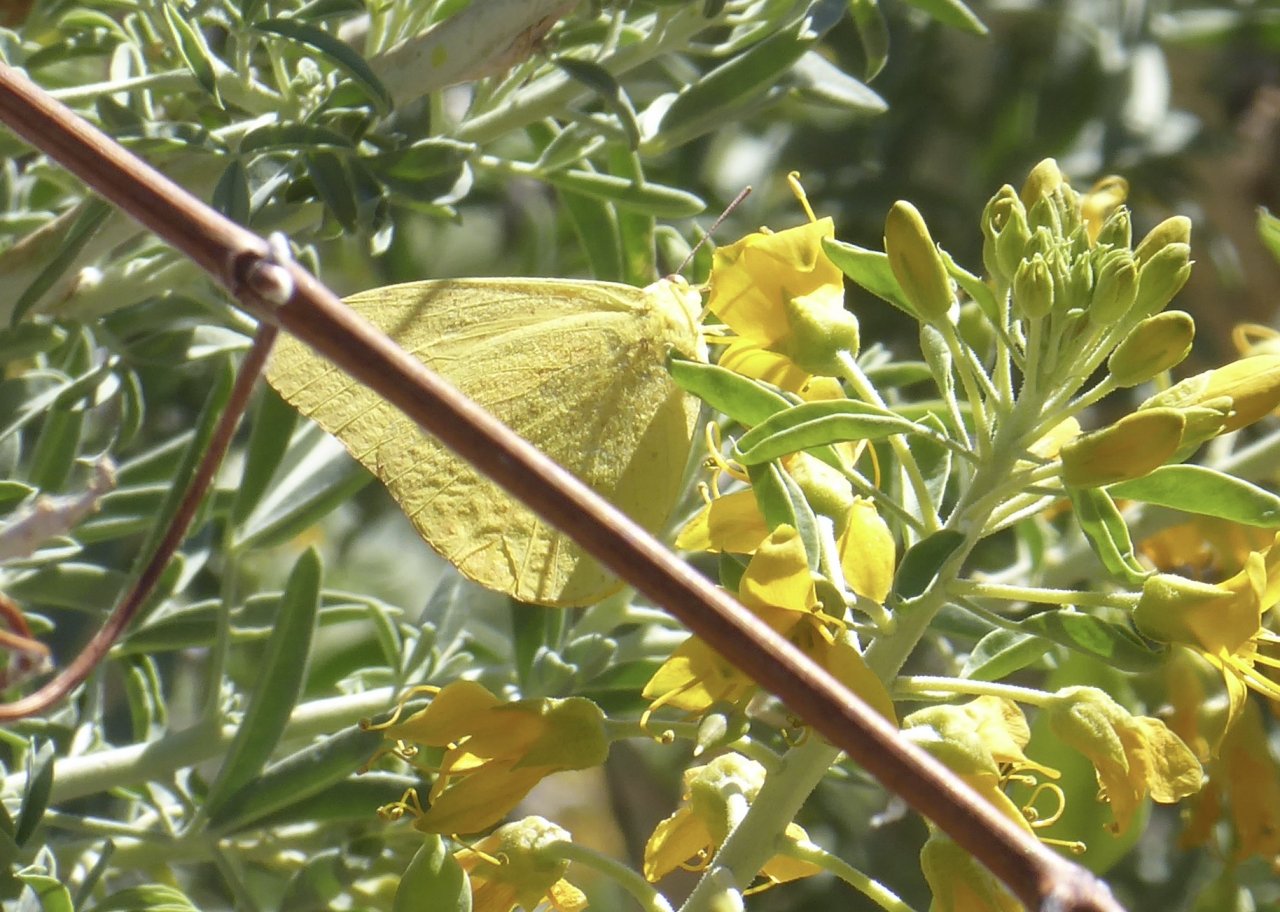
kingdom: Animalia
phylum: Arthropoda
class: Insecta
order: Lepidoptera
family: Pieridae
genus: Phoebis
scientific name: Phoebis agarithe
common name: Large Orange Sulphur
